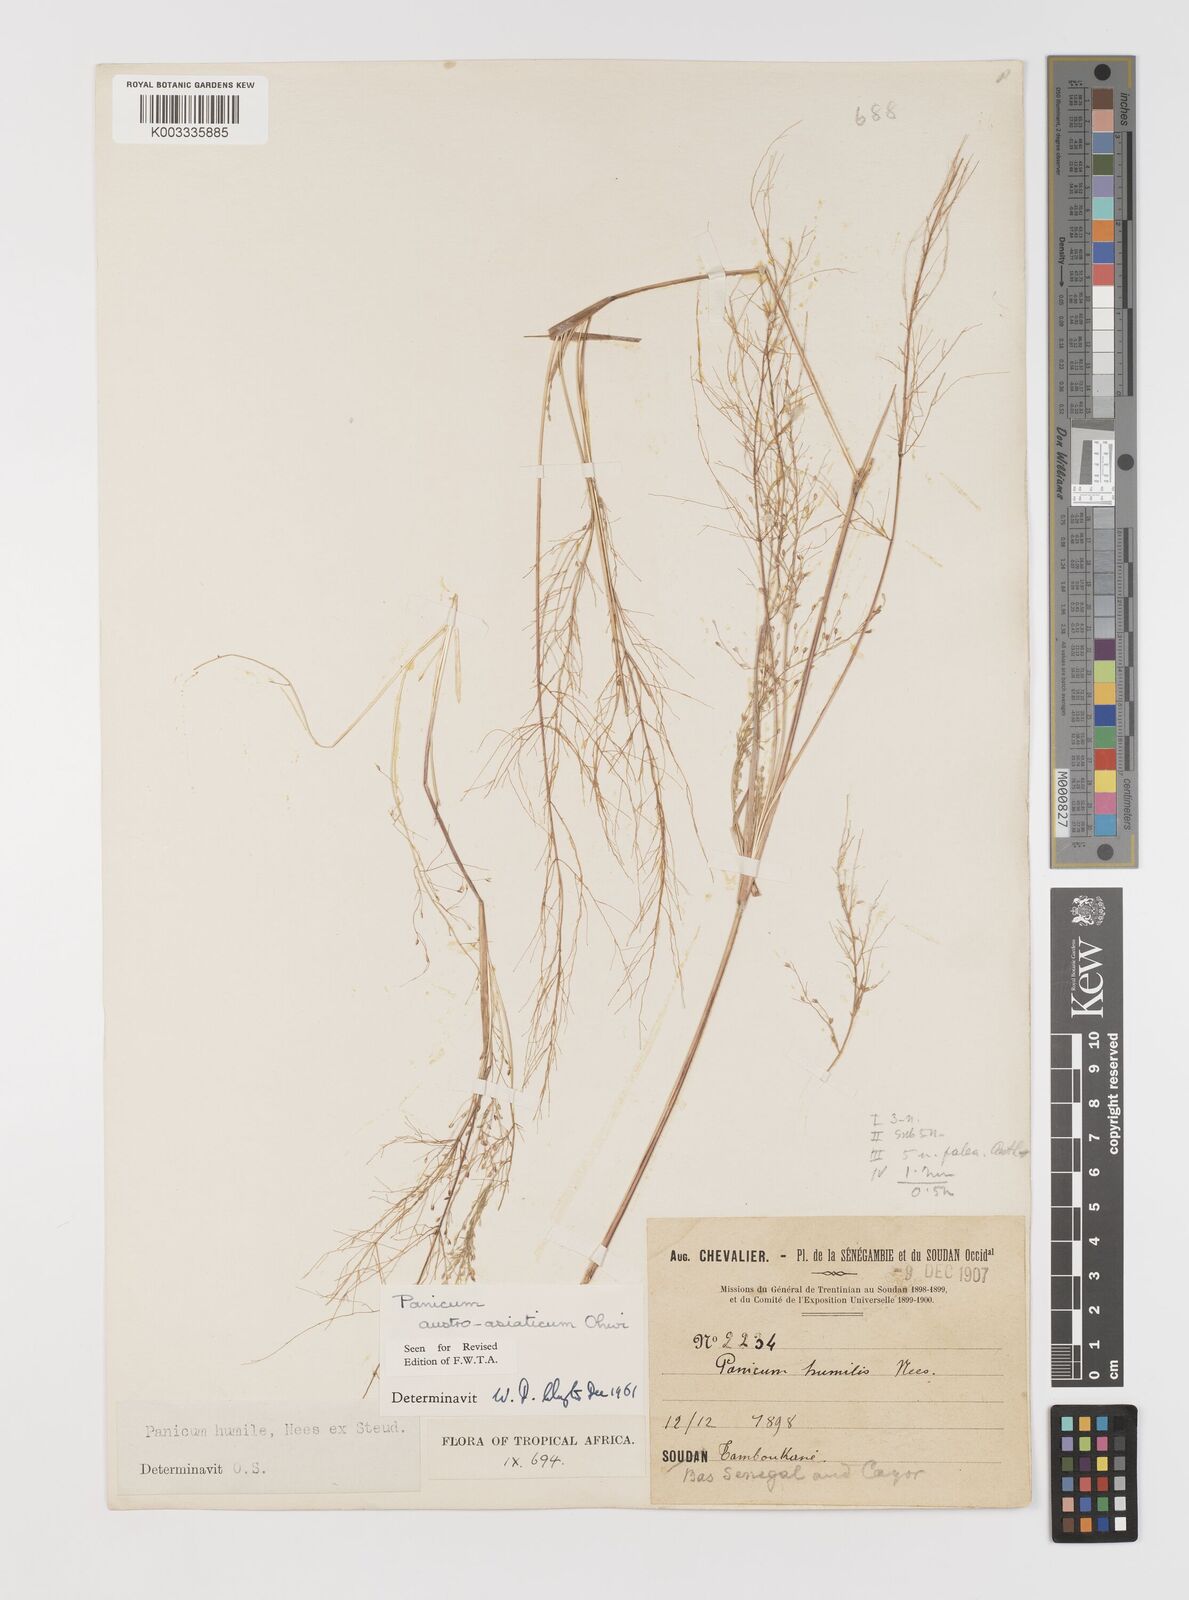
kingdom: Plantae
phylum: Tracheophyta
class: Liliopsida
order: Poales
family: Poaceae
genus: Panicum
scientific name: Panicum humile
